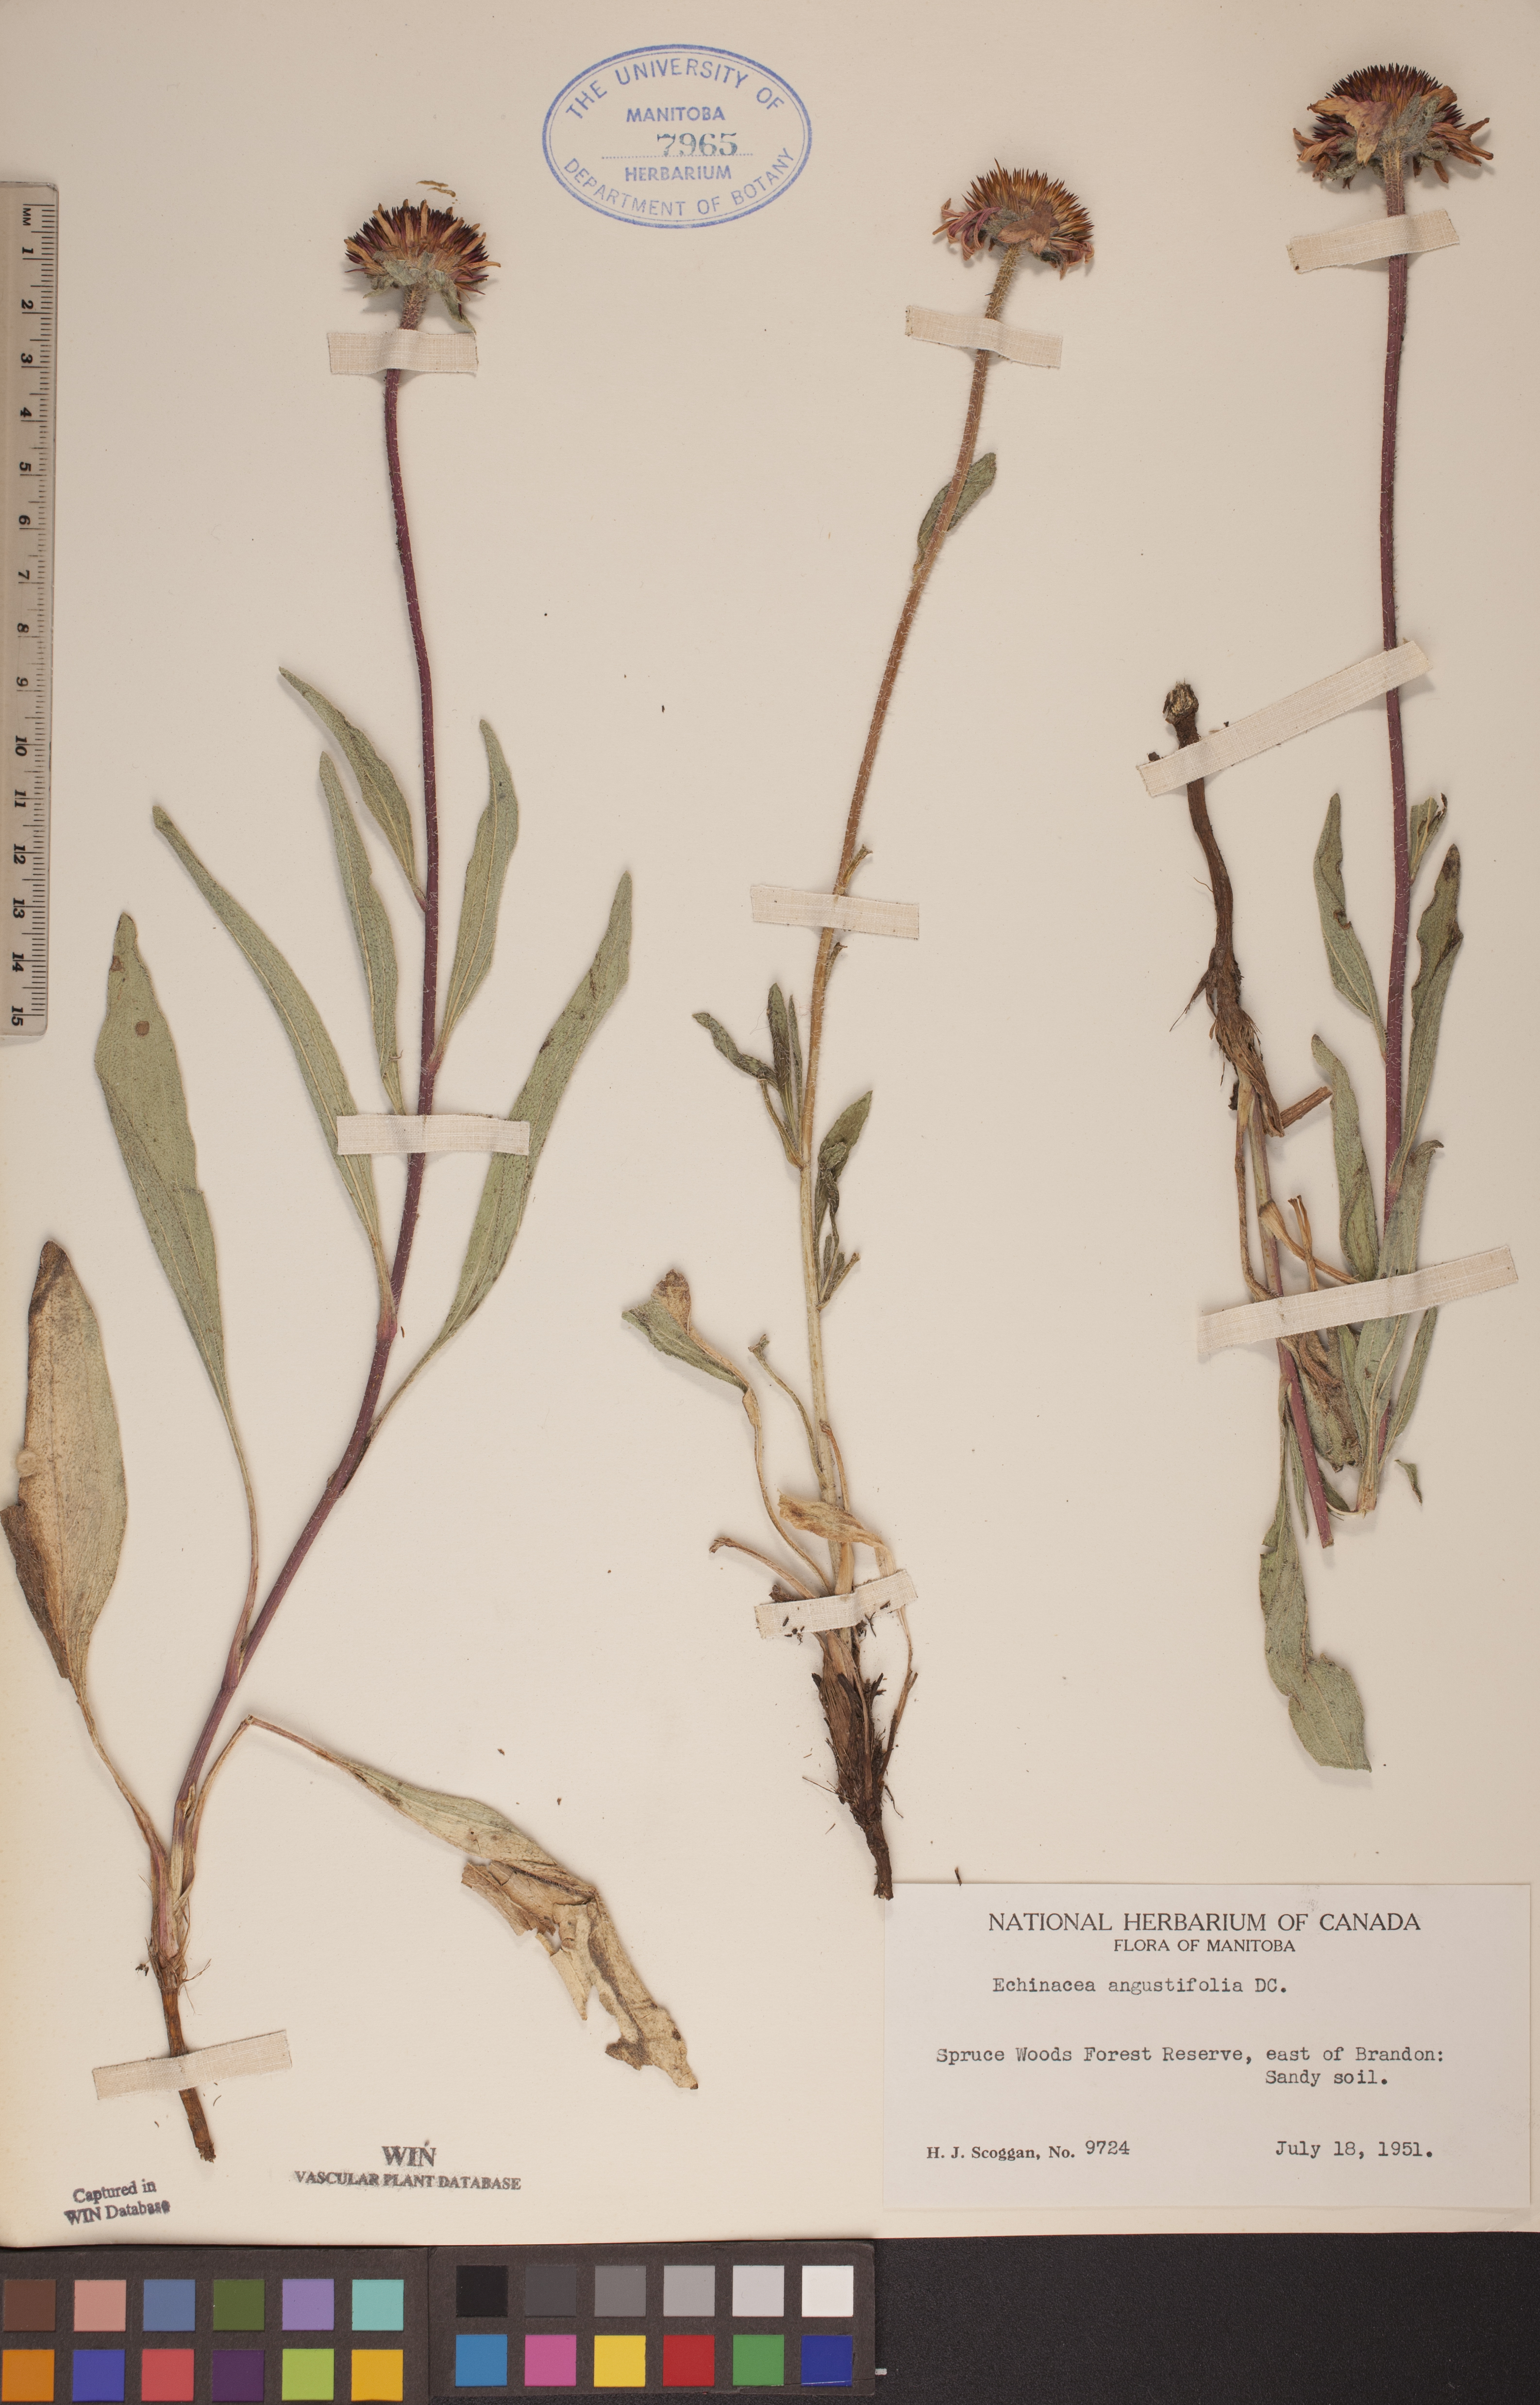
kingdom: Plantae
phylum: Tracheophyta
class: Magnoliopsida
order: Asterales
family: Asteraceae
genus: Echinacea
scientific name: Echinacea angustifolia
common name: Black-sampson echinacea
